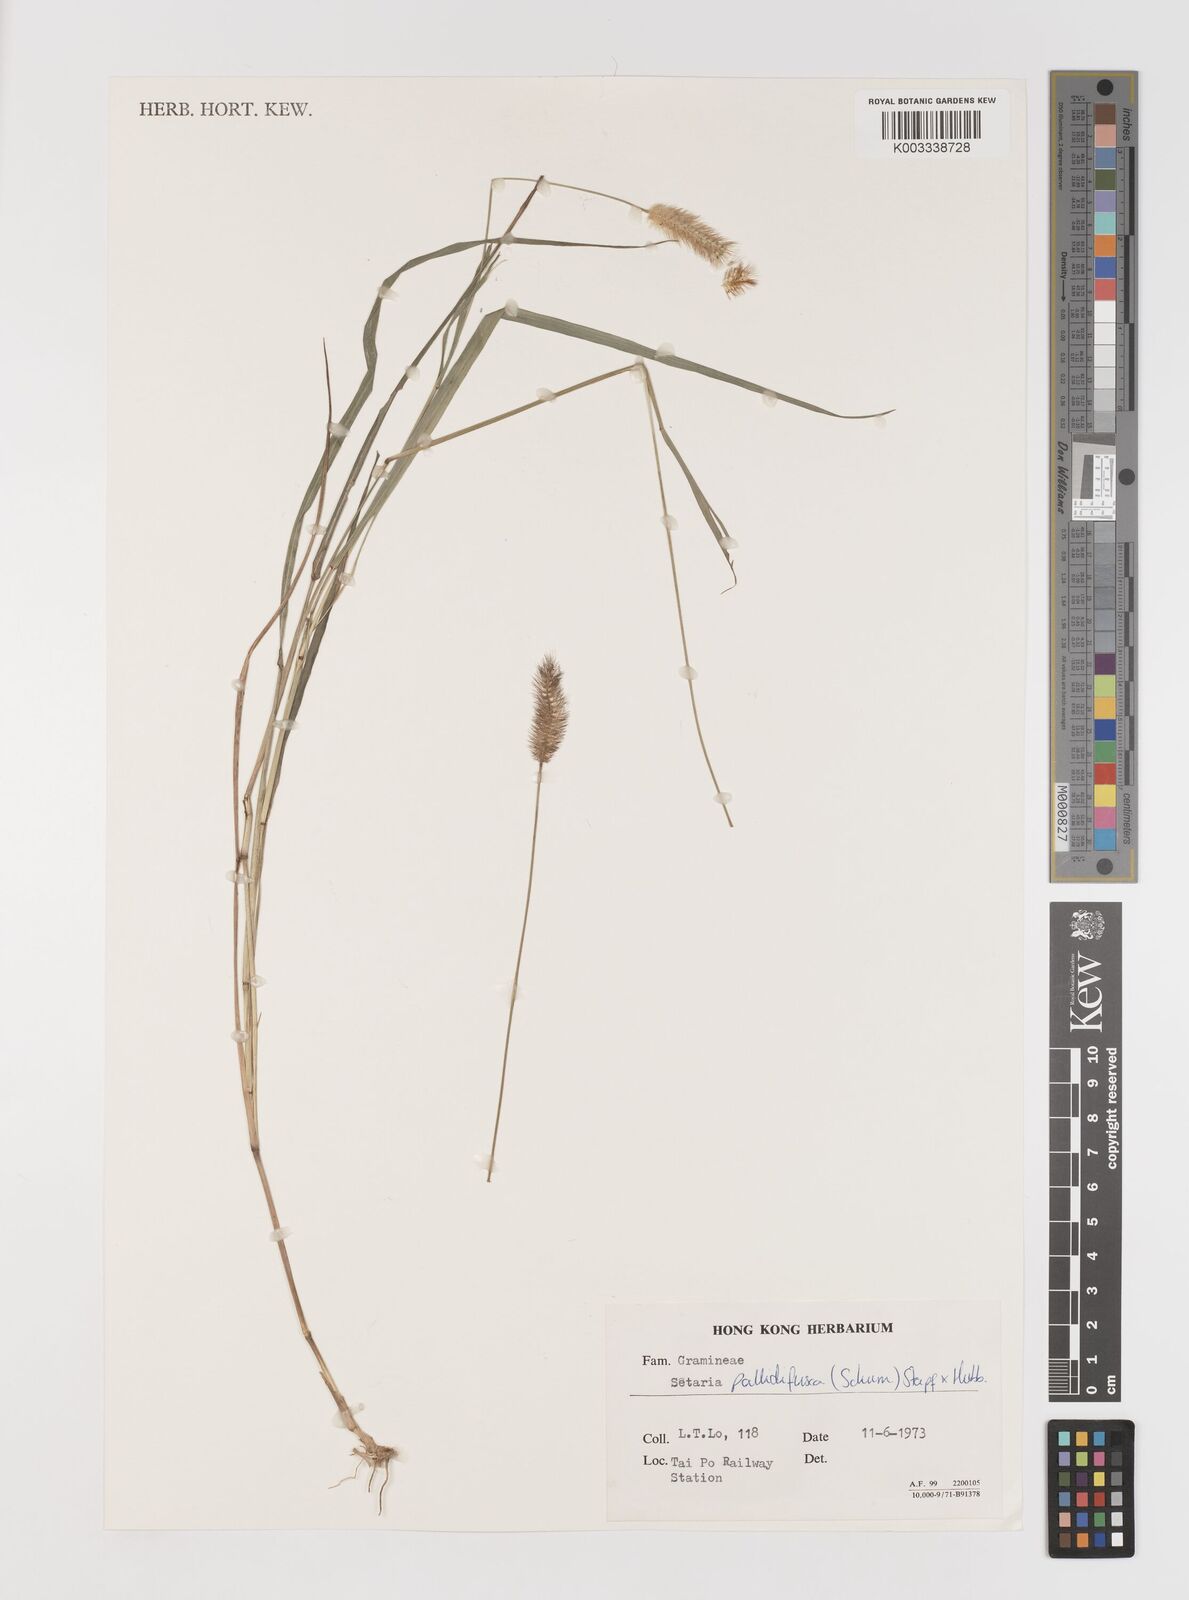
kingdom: Plantae
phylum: Tracheophyta
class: Liliopsida
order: Poales
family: Poaceae
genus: Setaria
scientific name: Setaria parviflora
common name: Knotroot bristle-grass
